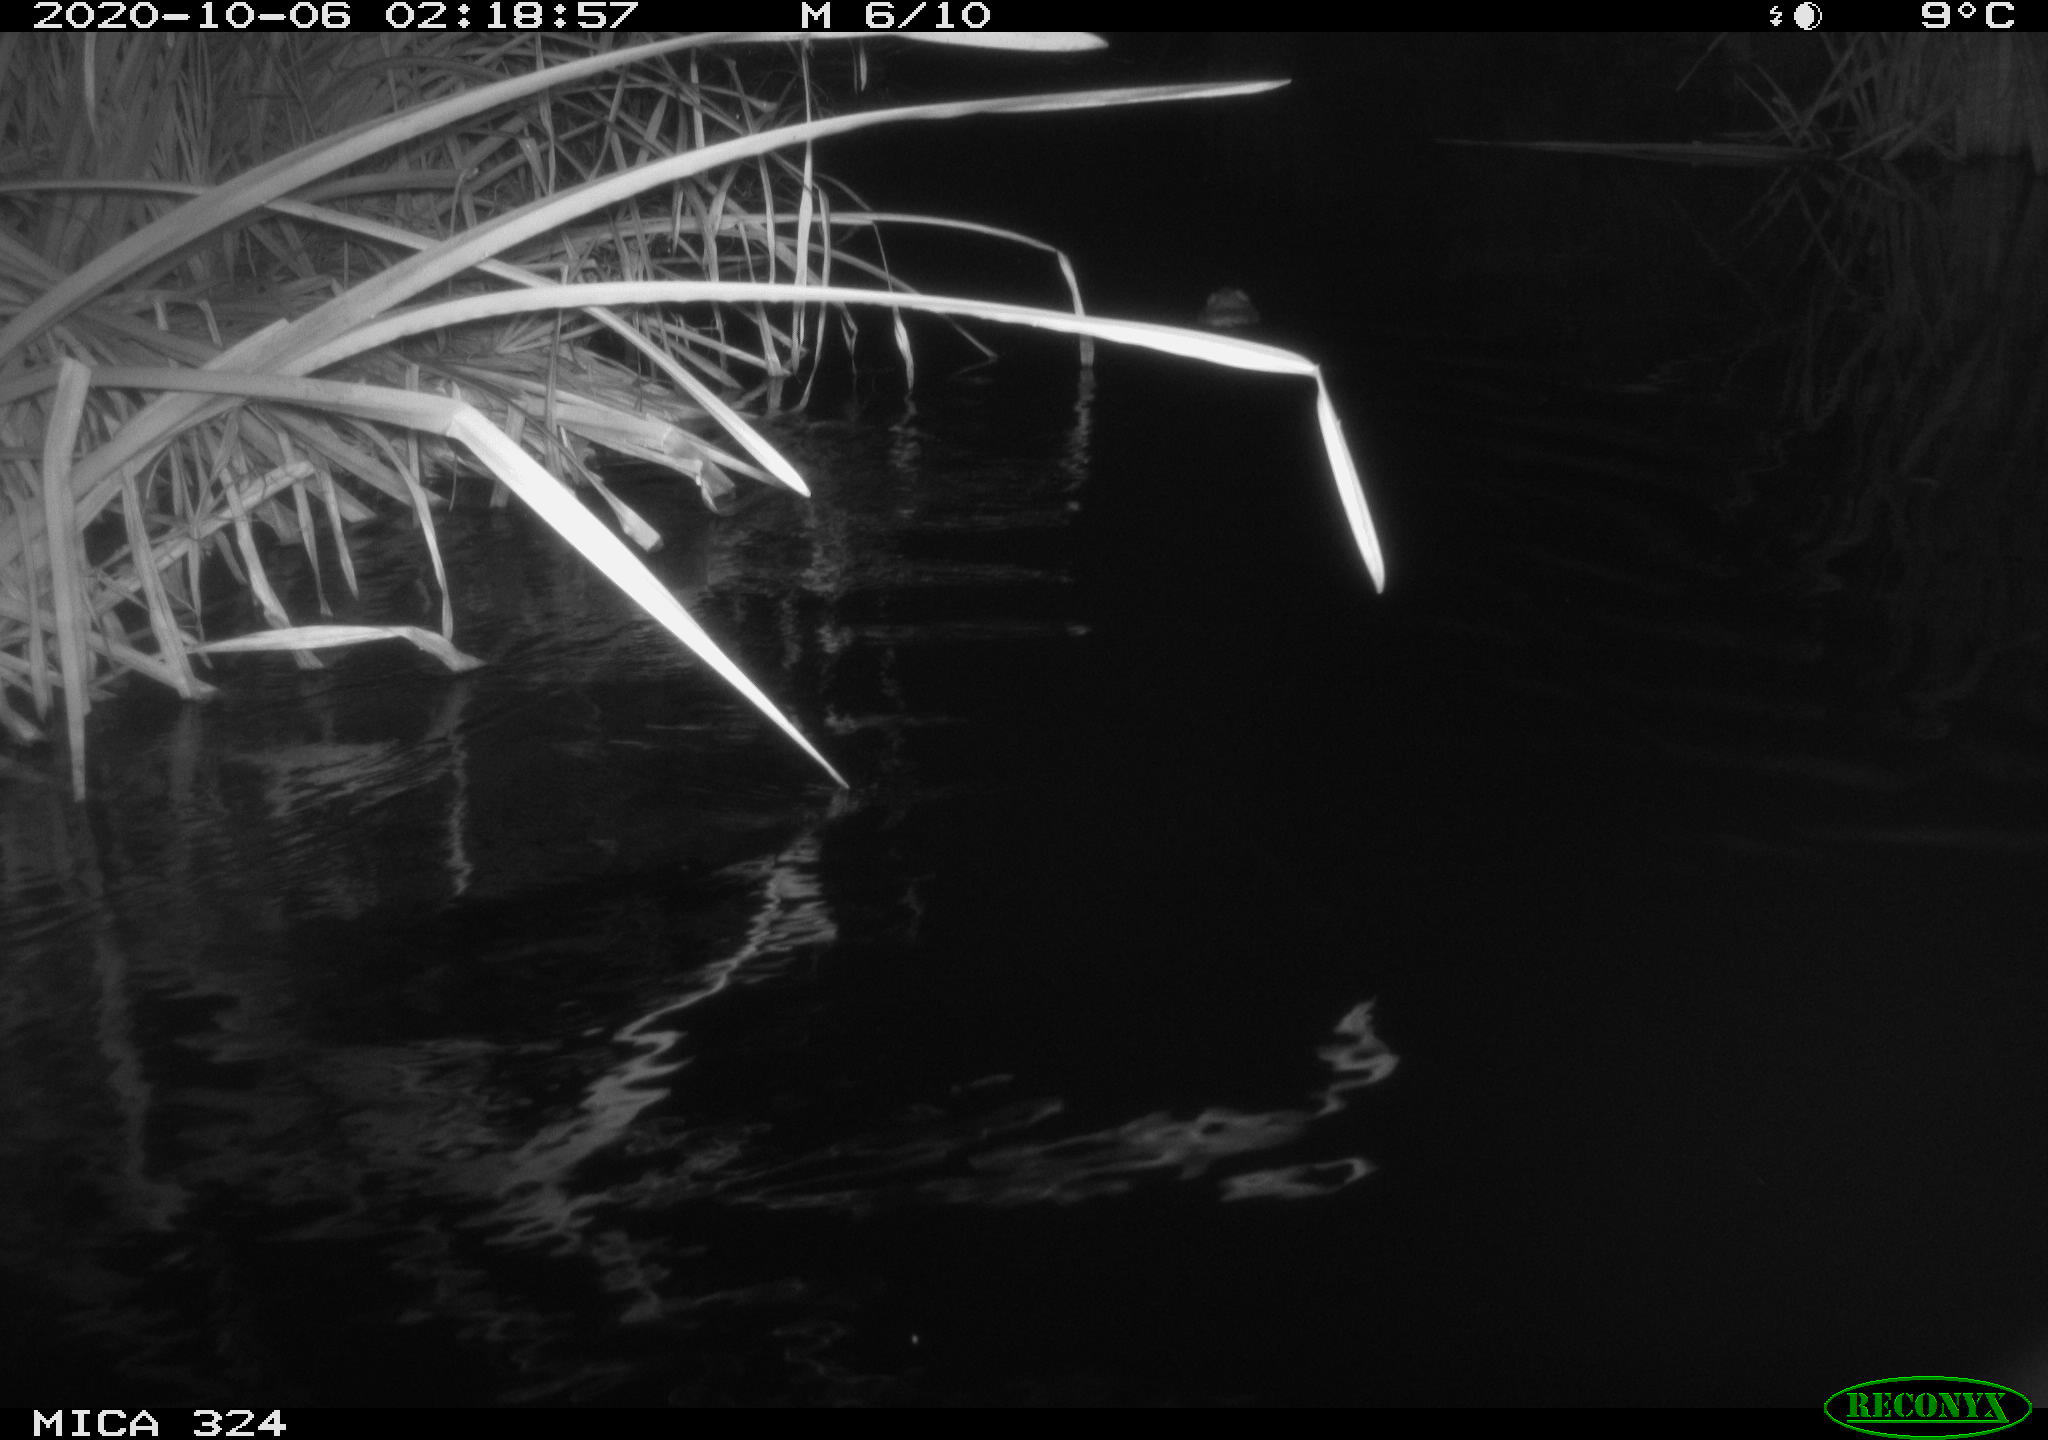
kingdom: Animalia
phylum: Chordata
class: Mammalia
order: Rodentia
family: Cricetidae
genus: Ondatra
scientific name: Ondatra zibethicus
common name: Muskrat
